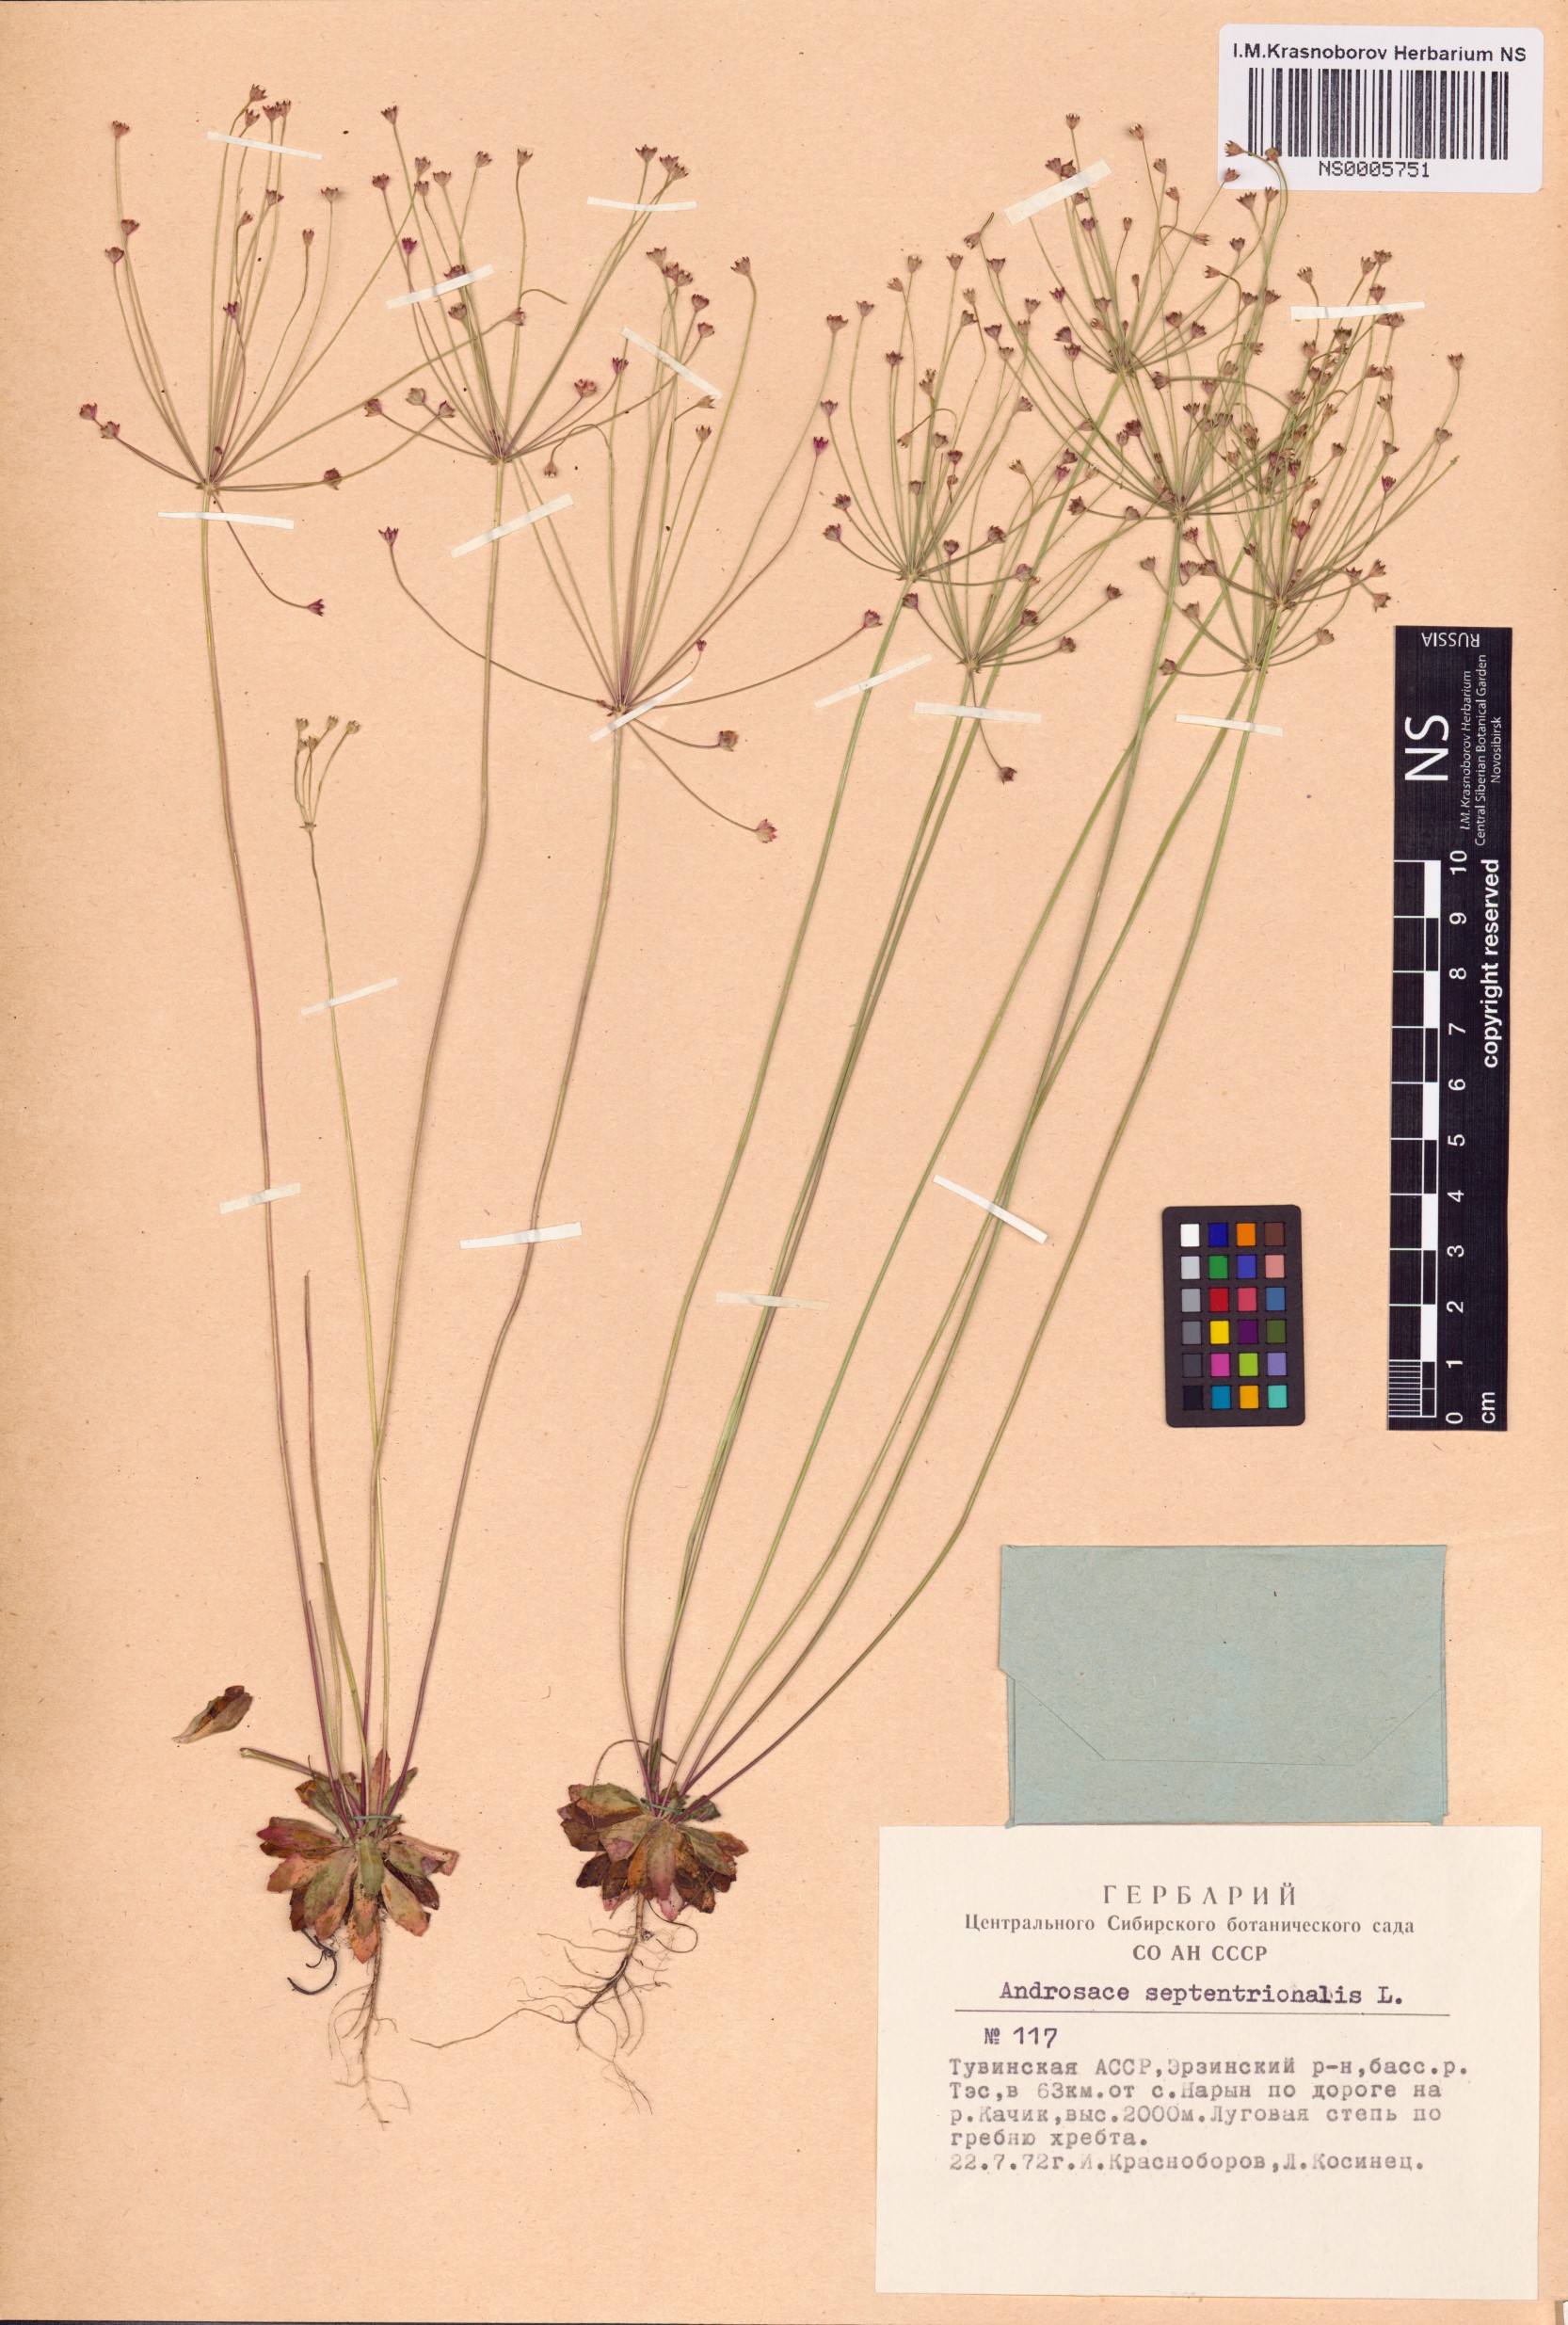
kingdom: Plantae
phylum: Tracheophyta
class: Magnoliopsida
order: Ericales
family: Primulaceae
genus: Androsace
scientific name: Androsace septentrionalis
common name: Hairy northern fairy-candelabra
